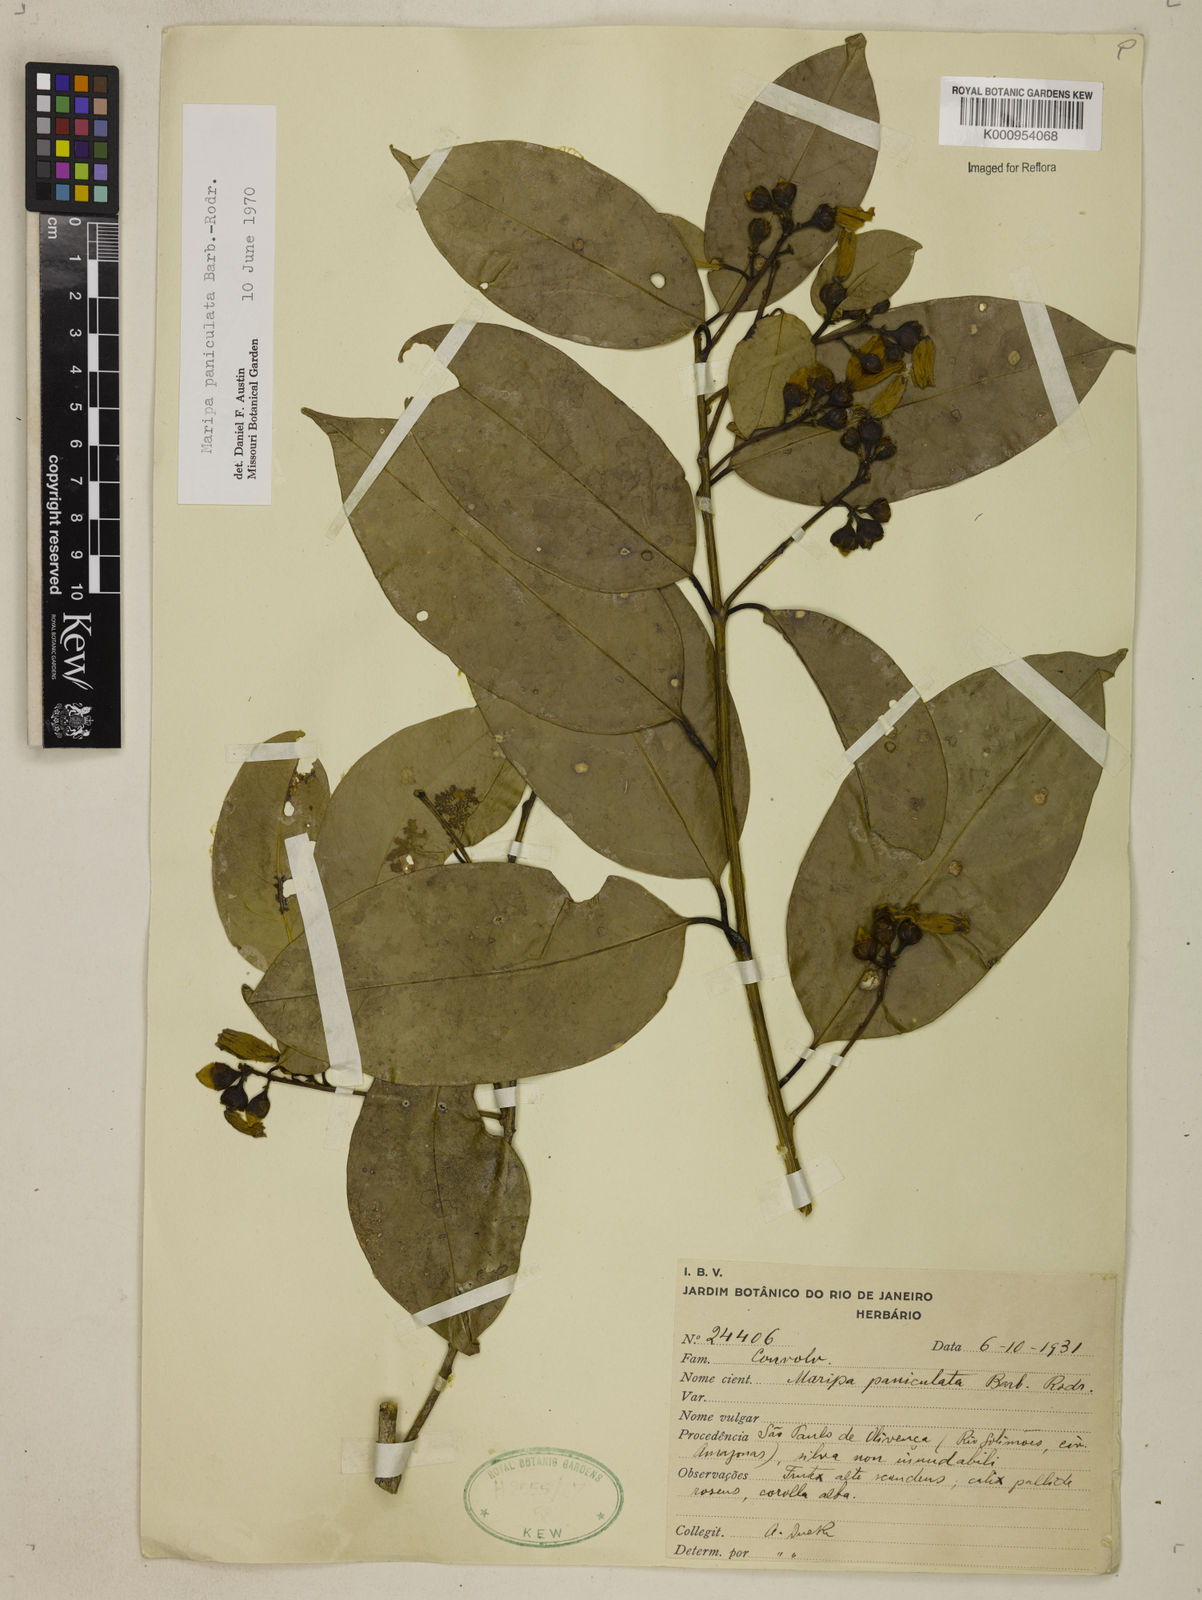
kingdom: Plantae
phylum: Tracheophyta
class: Magnoliopsida
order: Solanales
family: Convolvulaceae
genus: Maripa
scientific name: Maripa paniculata
